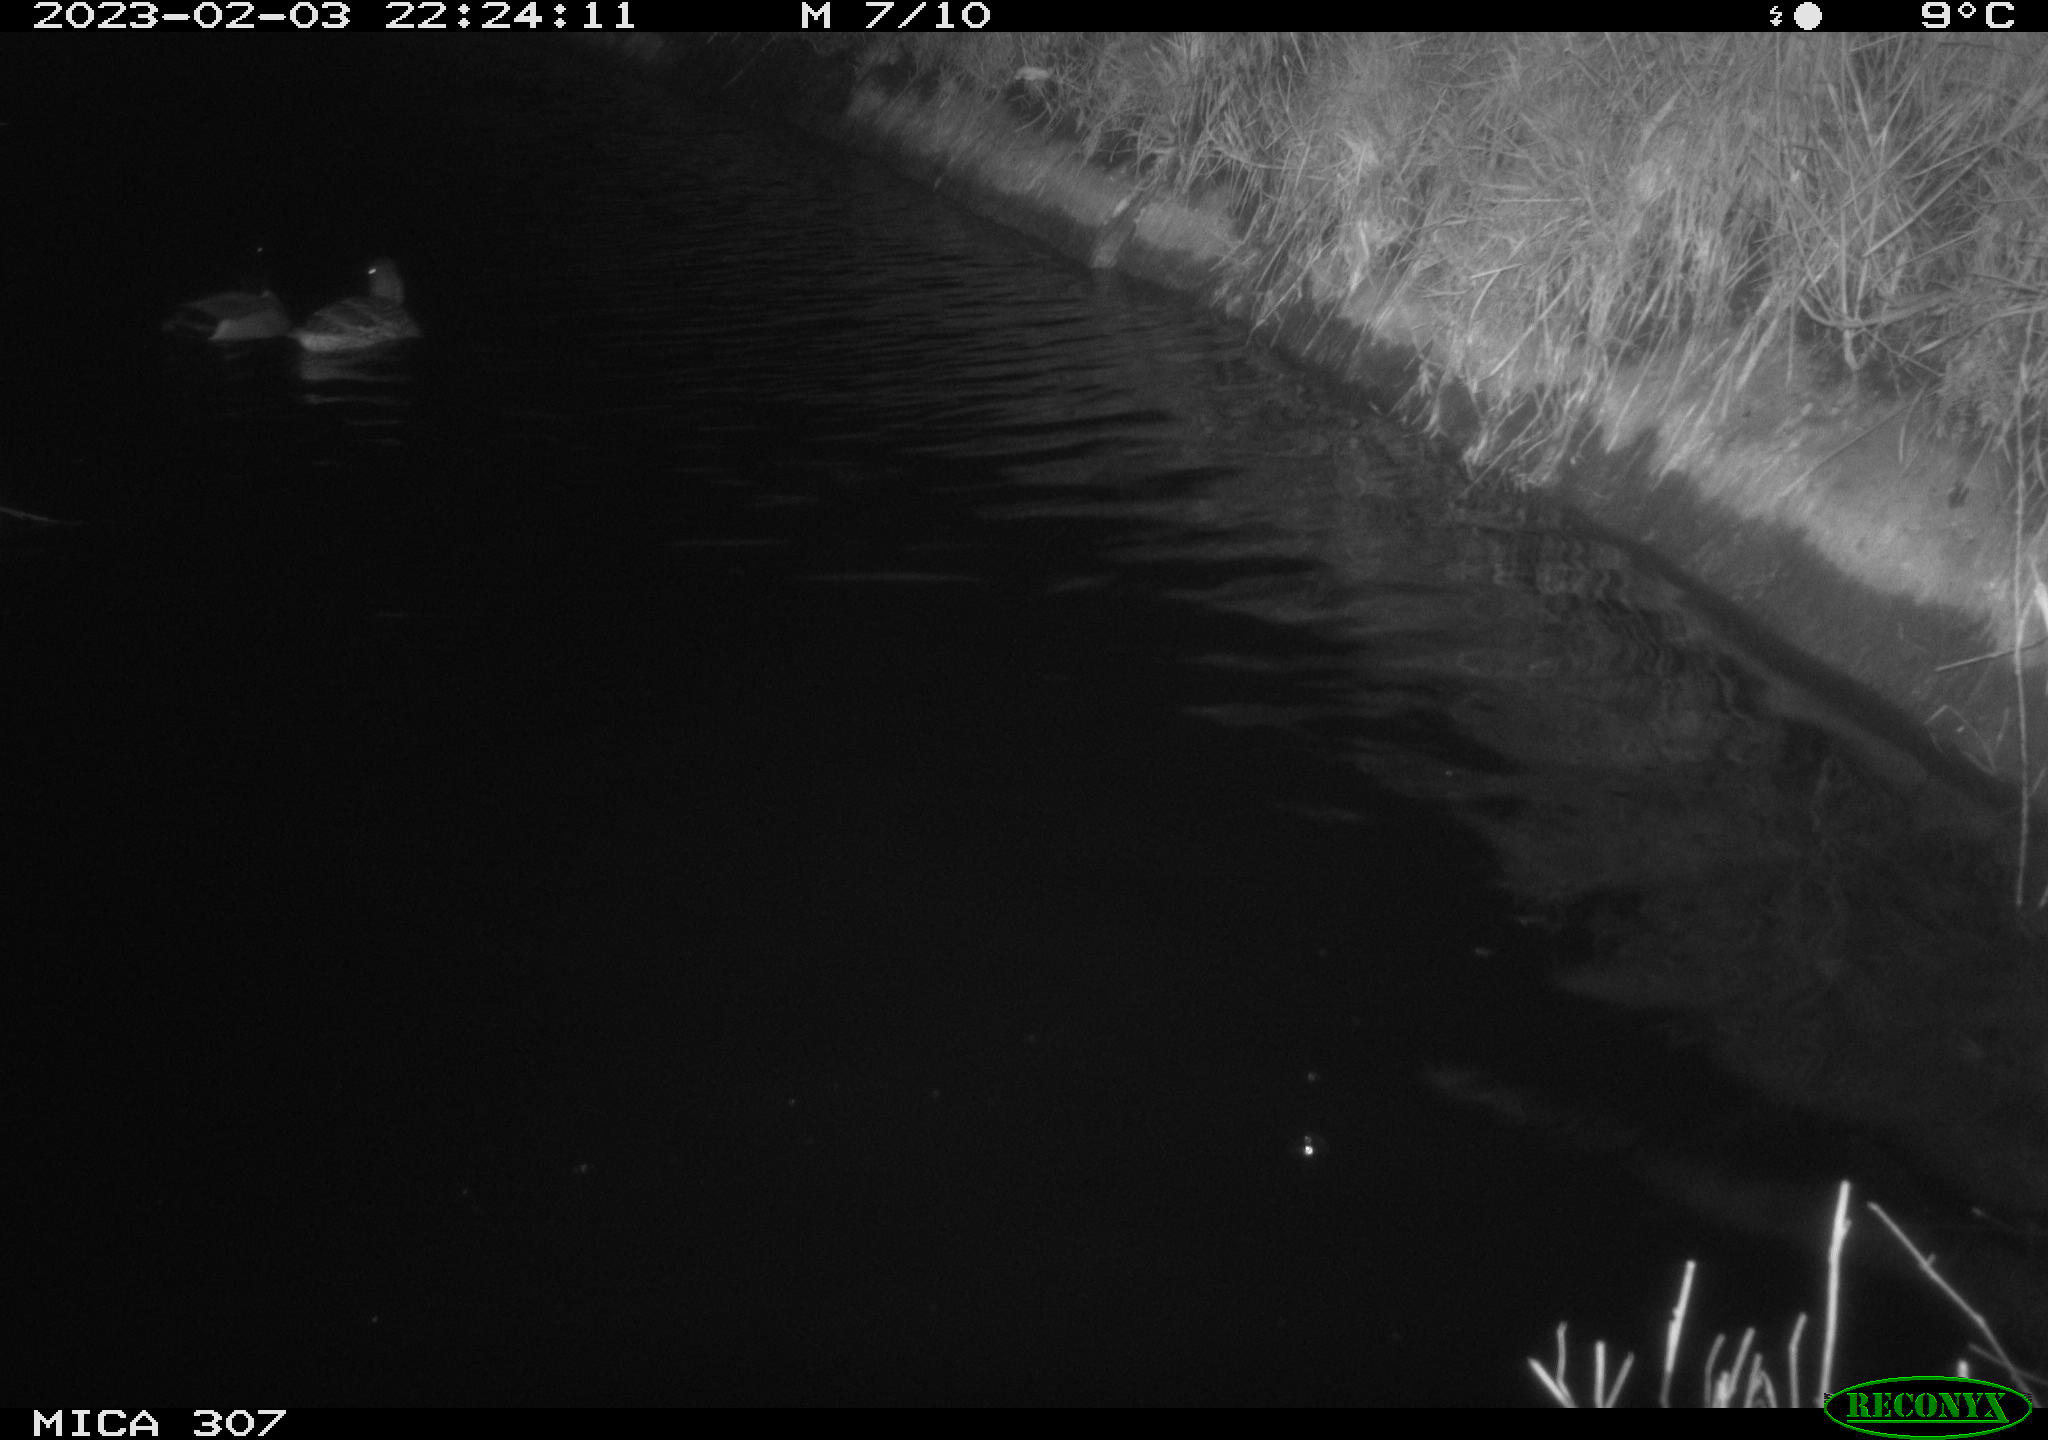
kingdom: Animalia
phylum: Chordata
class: Aves
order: Anseriformes
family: Anatidae
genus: Anas
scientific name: Anas
